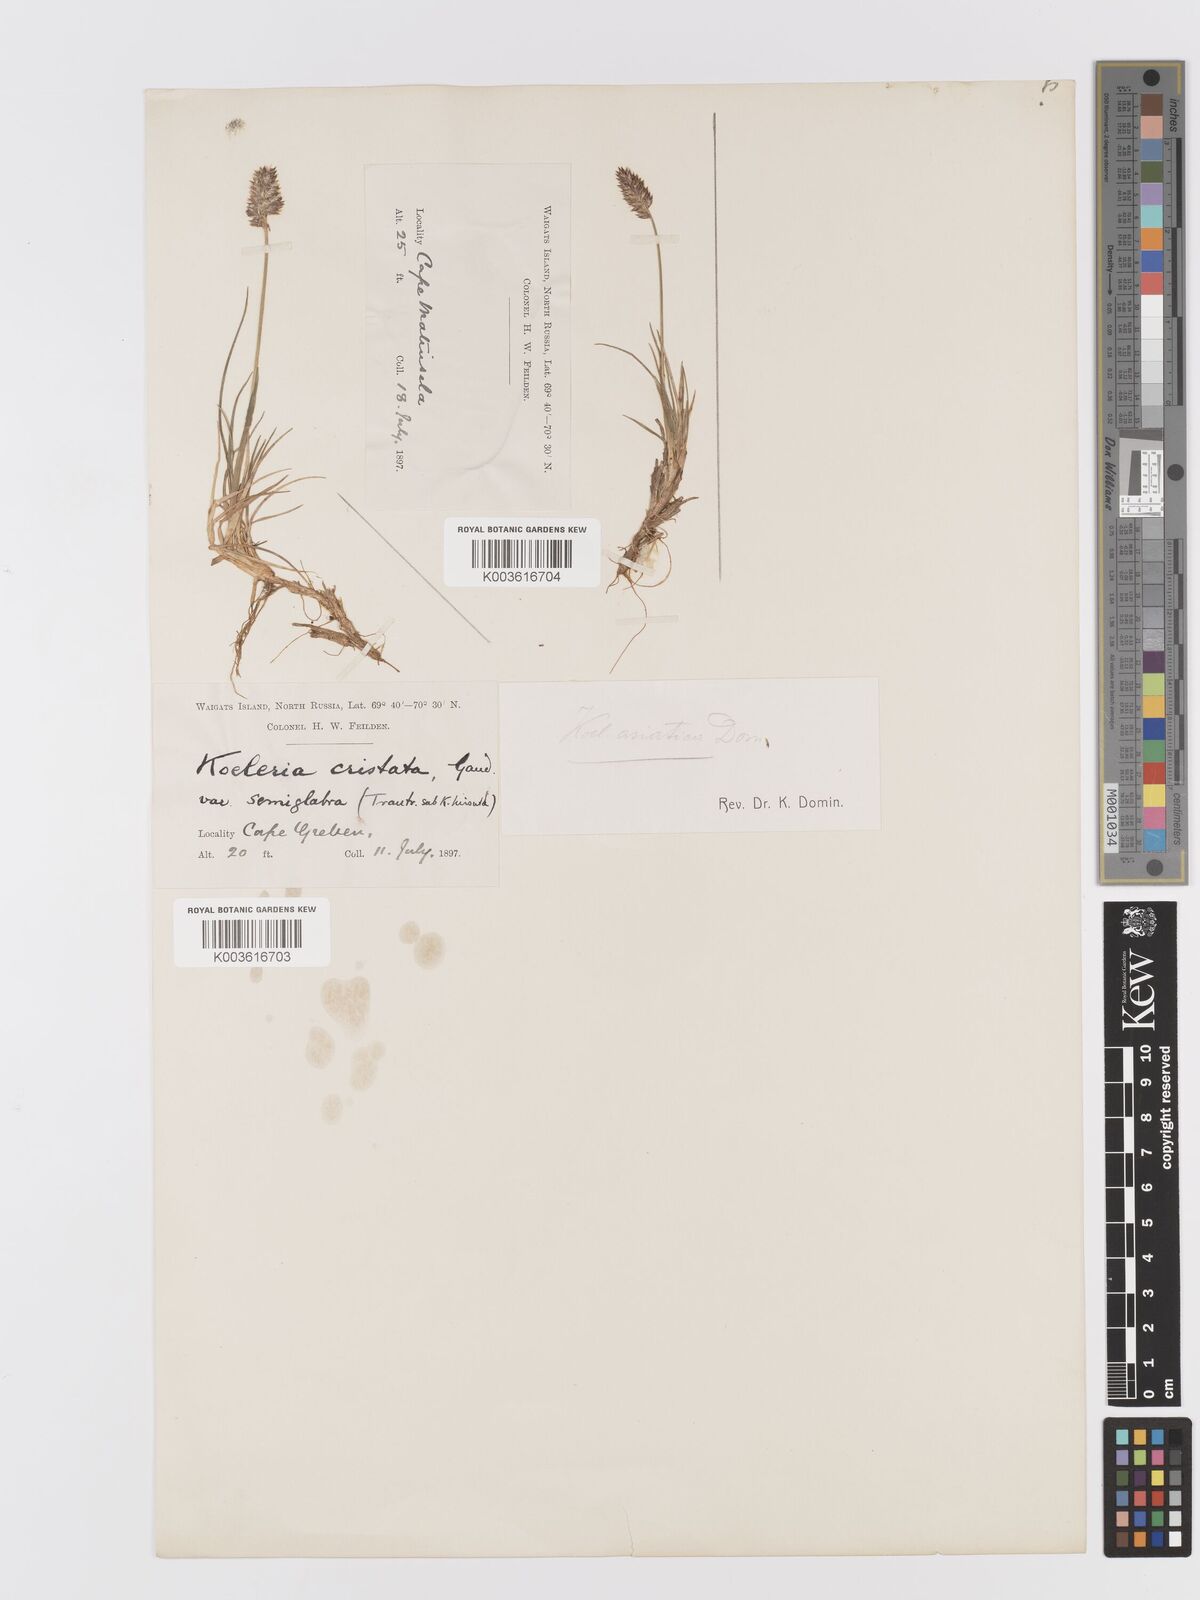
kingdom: Plantae
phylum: Tracheophyta
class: Liliopsida
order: Poales
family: Poaceae
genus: Koeleria
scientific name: Koeleria asiatica
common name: Eurasian junegrass
